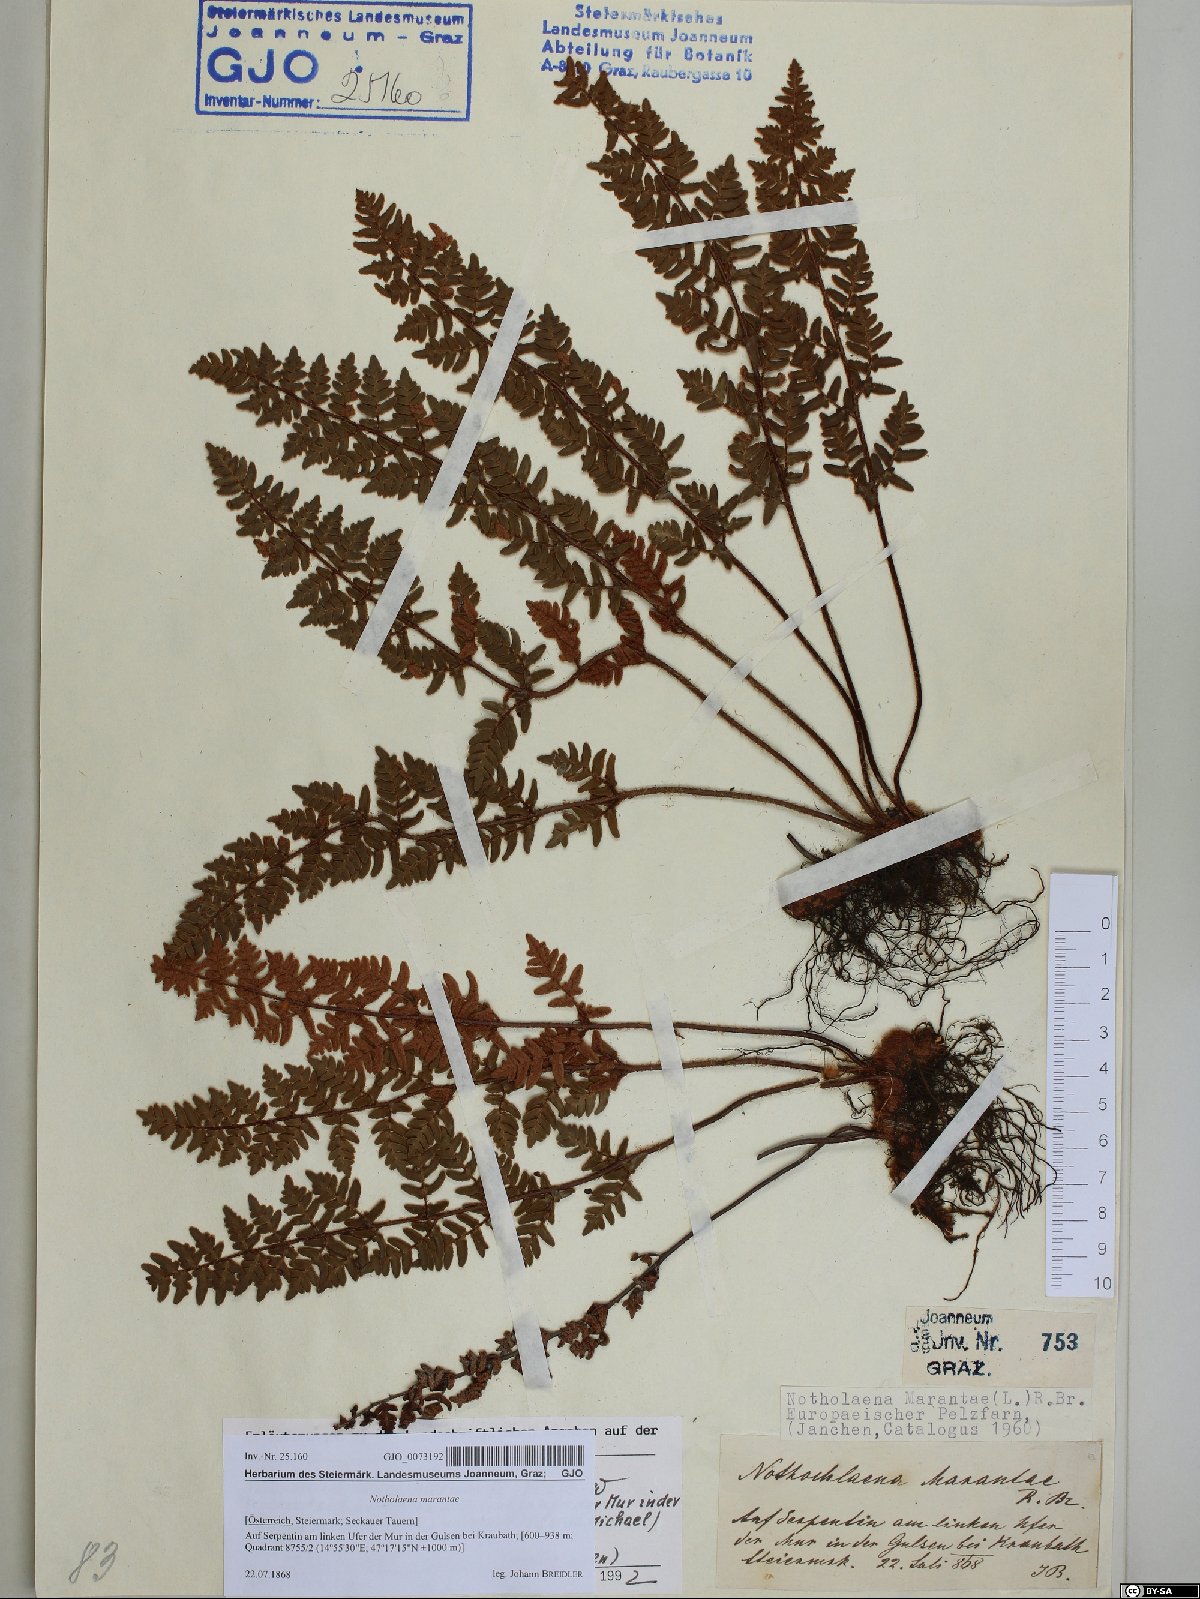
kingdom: Plantae
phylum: Tracheophyta
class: Polypodiopsida
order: Polypodiales
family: Pteridaceae
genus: Paragymnopteris
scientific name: Paragymnopteris marantae
